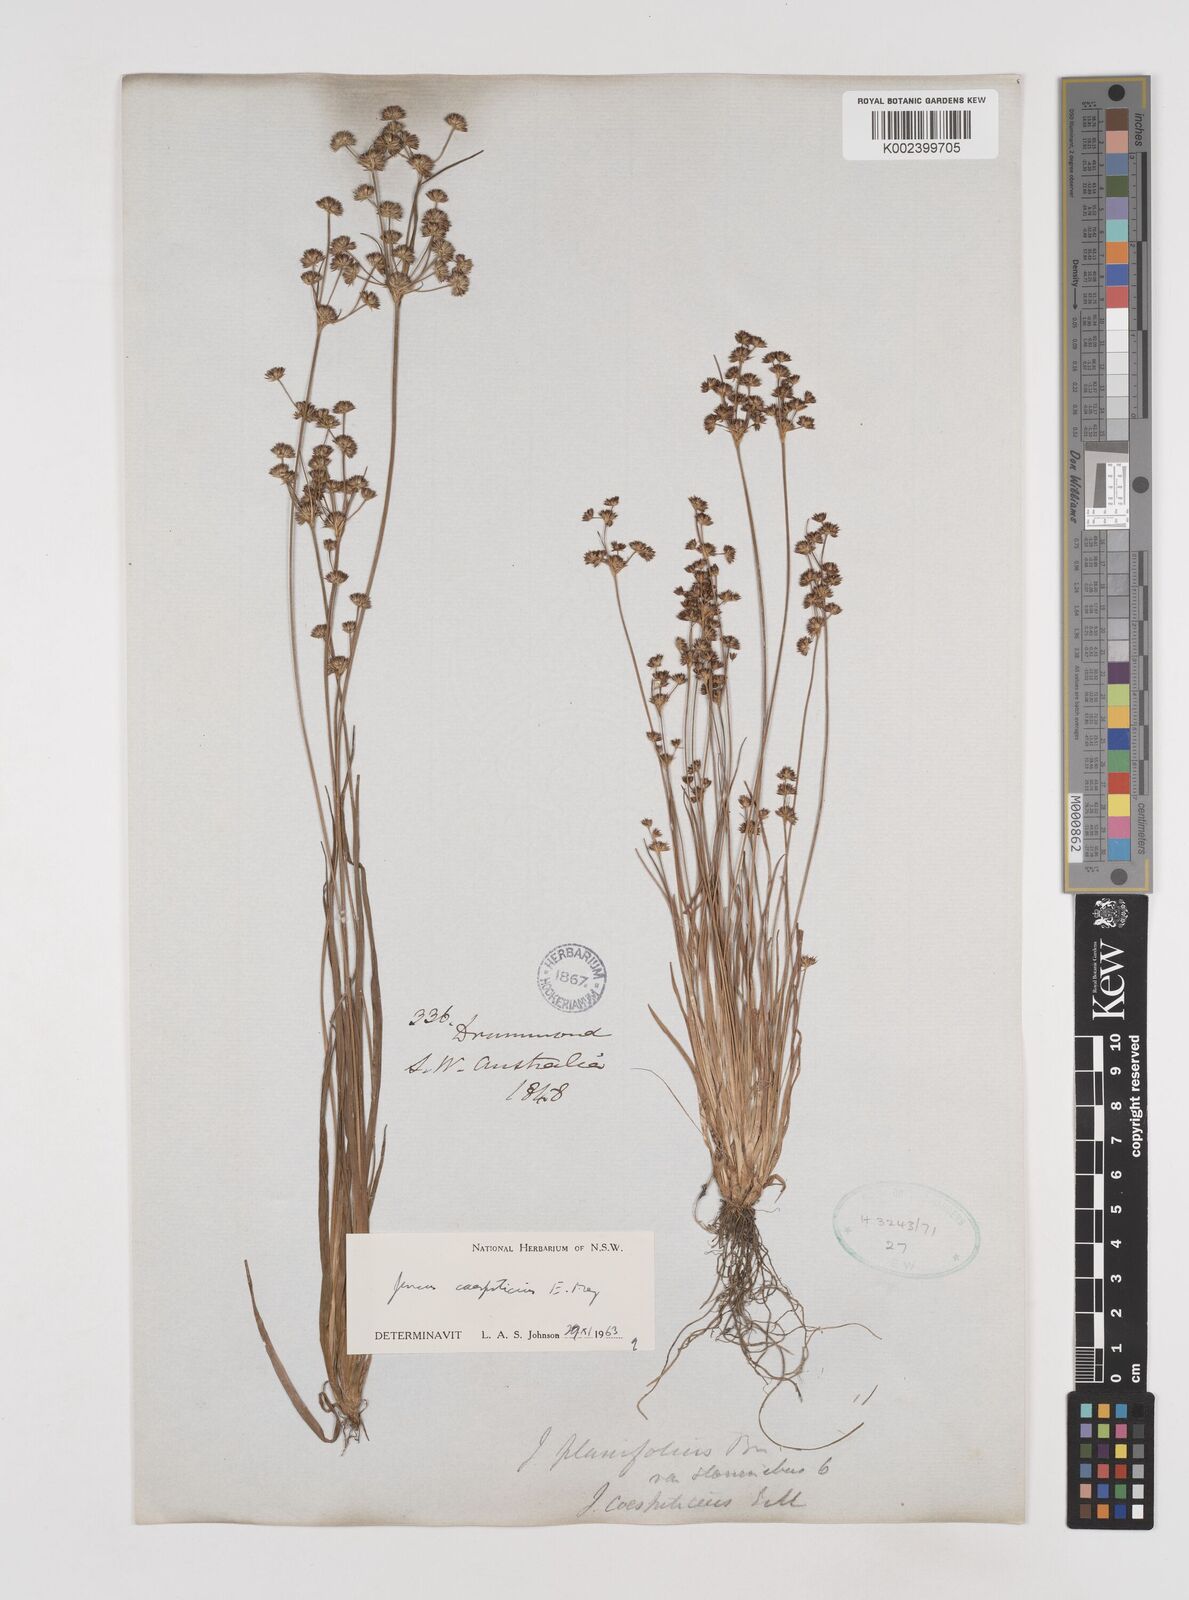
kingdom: Plantae
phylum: Tracheophyta
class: Liliopsida
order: Poales
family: Juncaceae
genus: Juncus
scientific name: Juncus caespiticius
